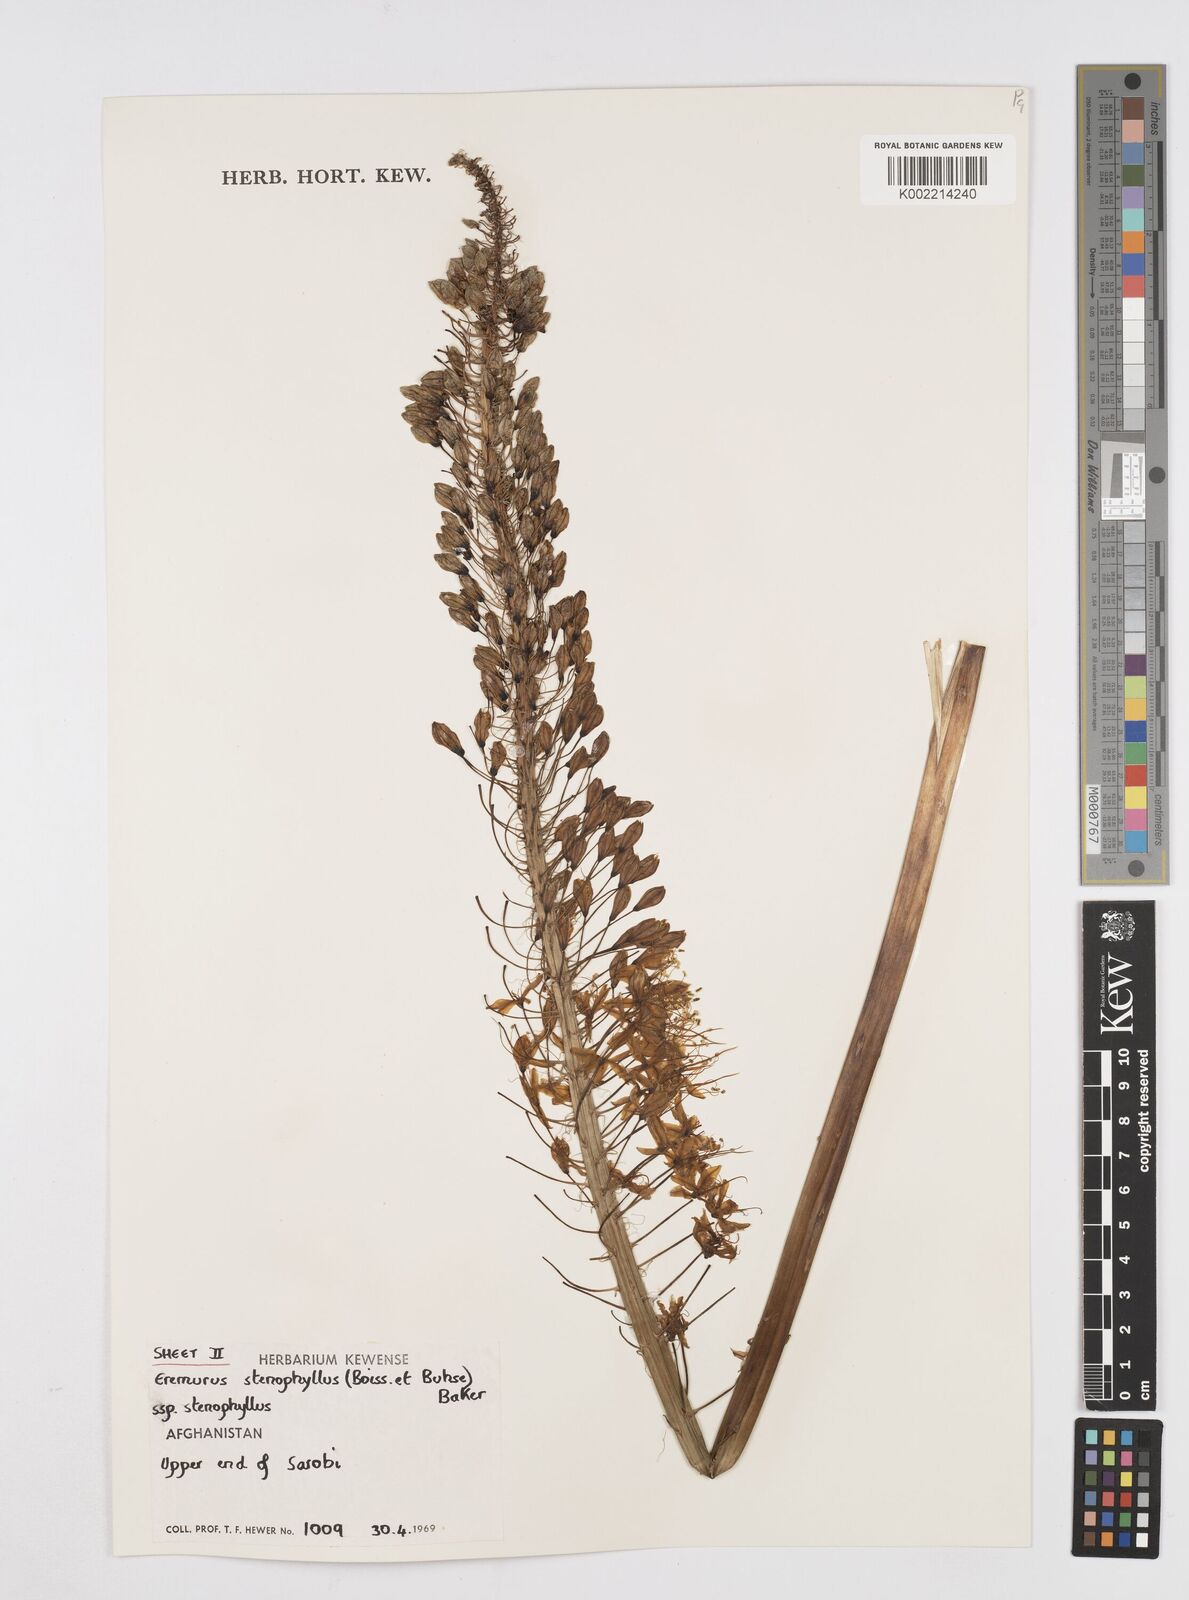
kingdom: Plantae
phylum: Tracheophyta
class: Liliopsida
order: Asparagales
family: Asphodelaceae
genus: Eremurus
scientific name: Eremurus stenophyllus
